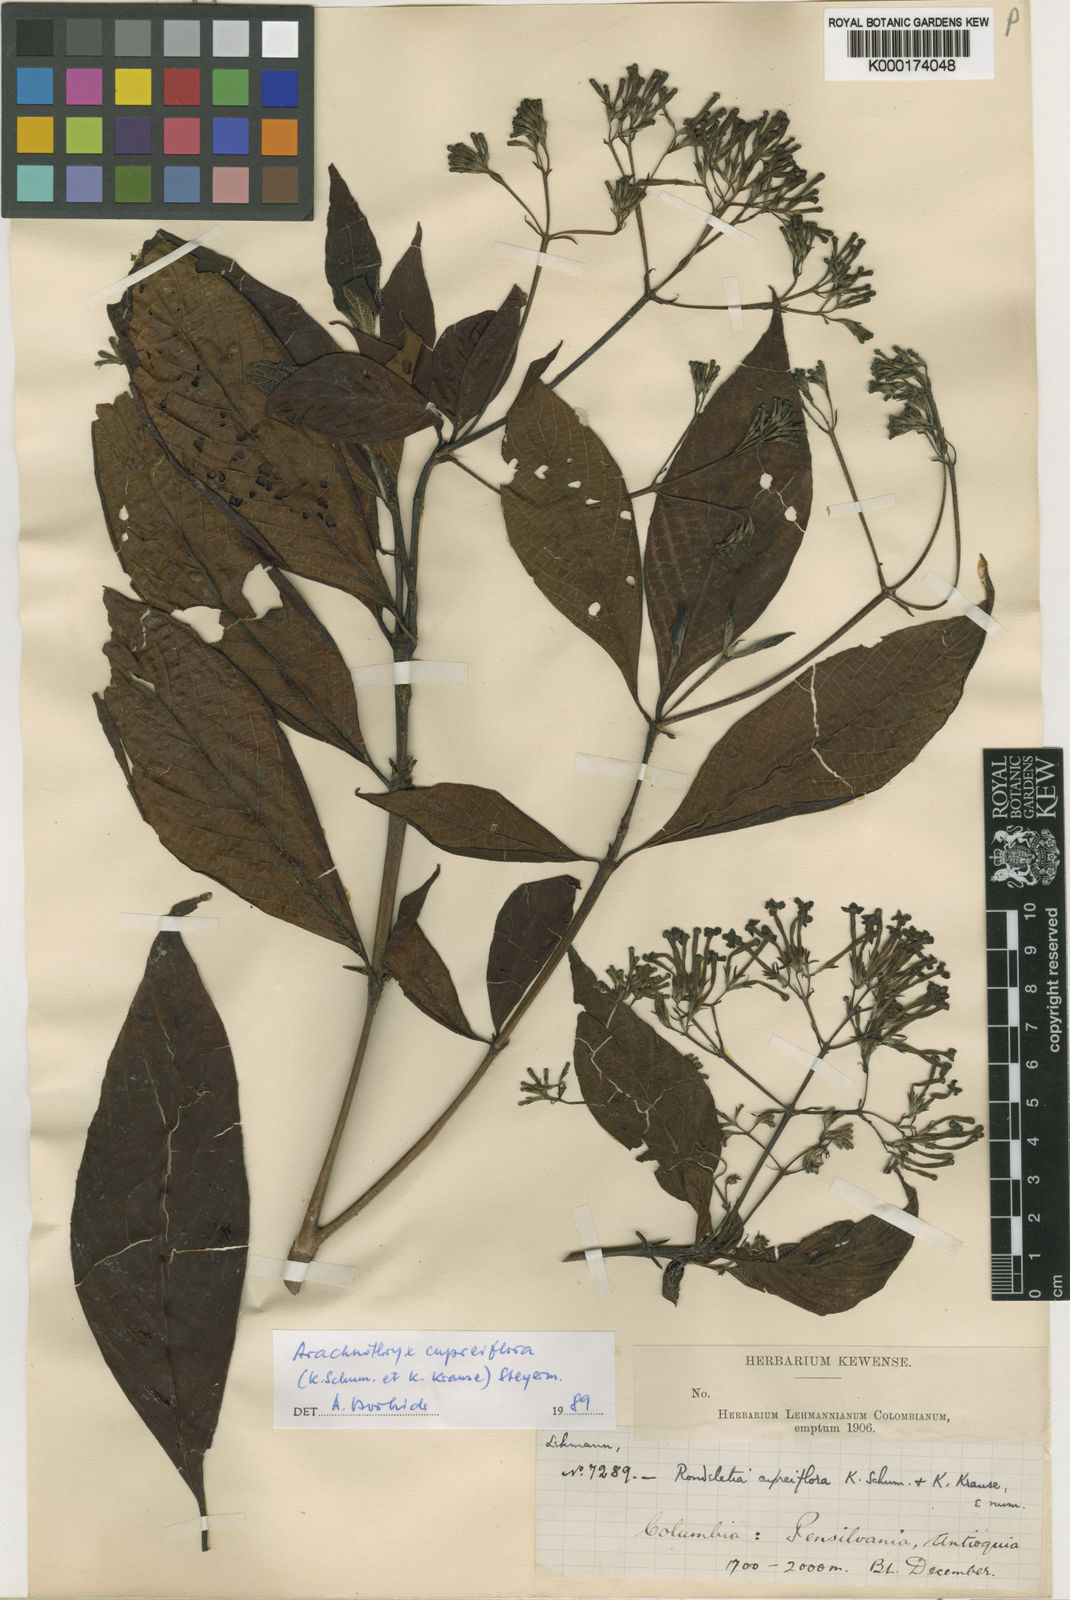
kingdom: Plantae
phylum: Tracheophyta
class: Magnoliopsida
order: Gentianales
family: Rubiaceae
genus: Arachnothryx
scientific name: Arachnothryx cupreiflora
